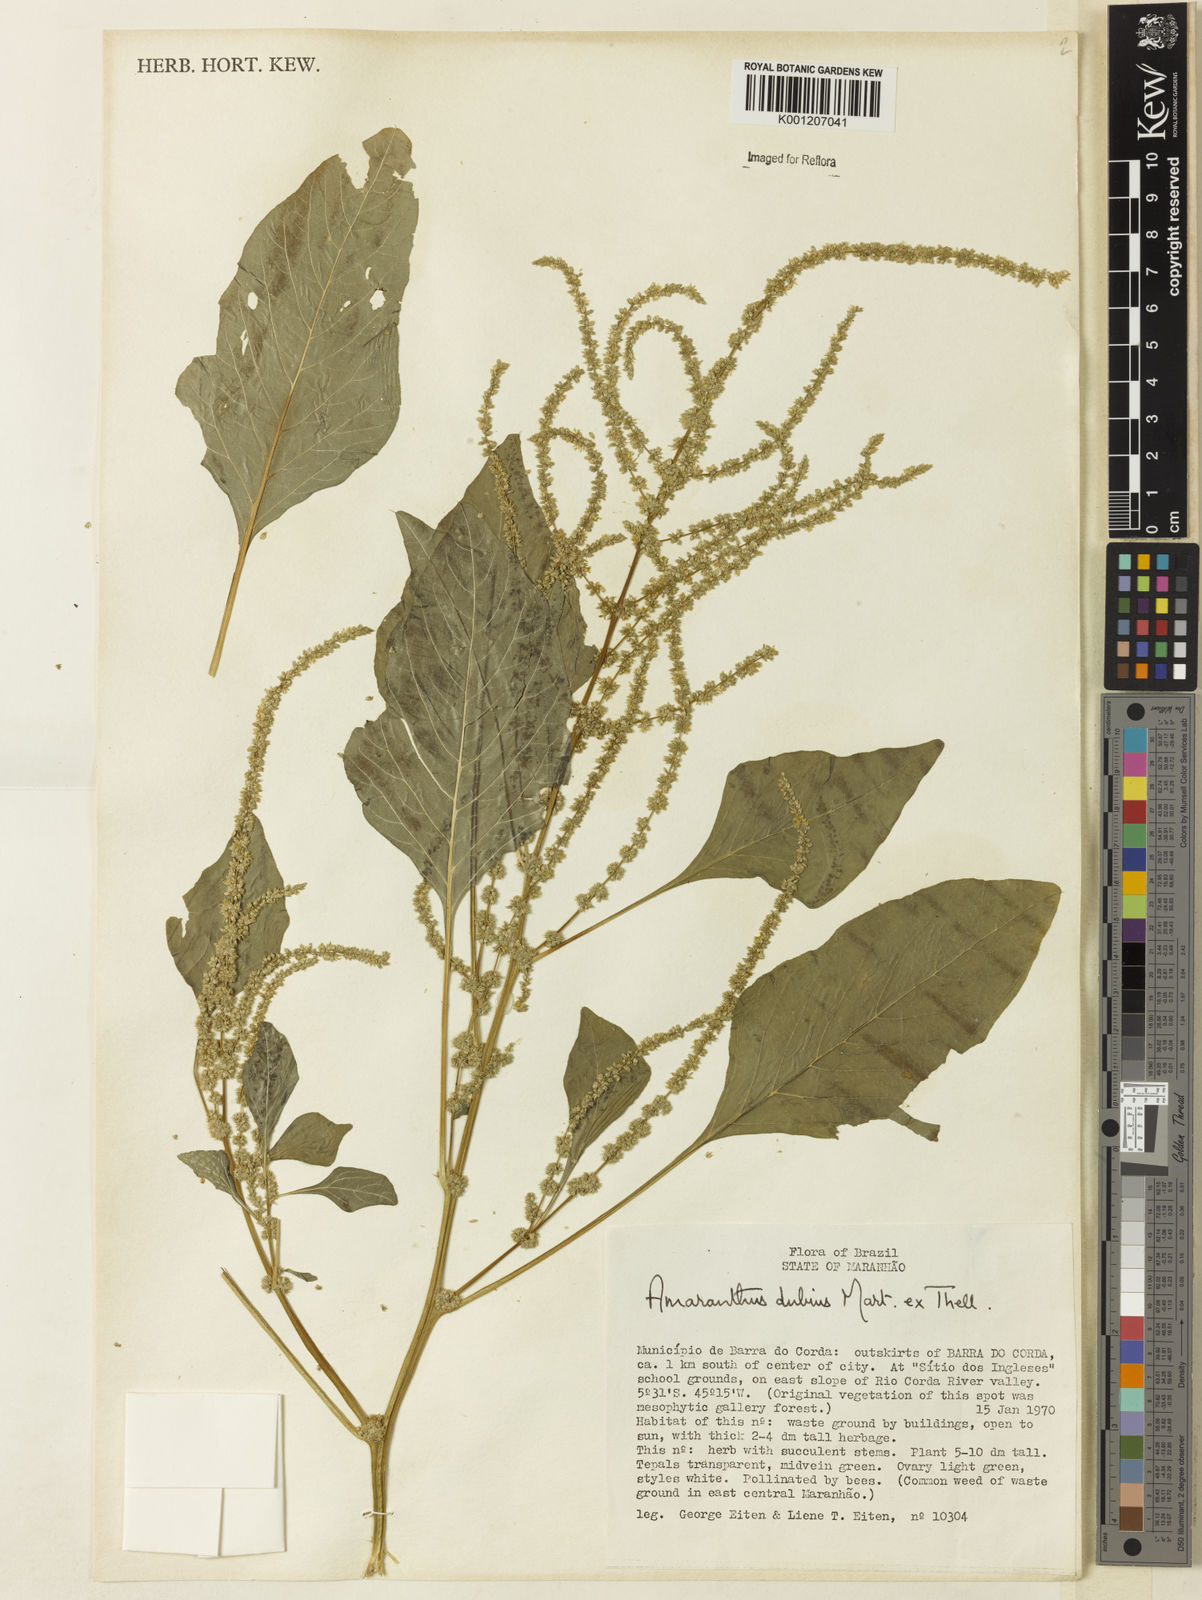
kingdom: Plantae
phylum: Tracheophyta
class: Magnoliopsida
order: Caryophyllales
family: Amaranthaceae
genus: Amaranthus
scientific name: Amaranthus dubius
